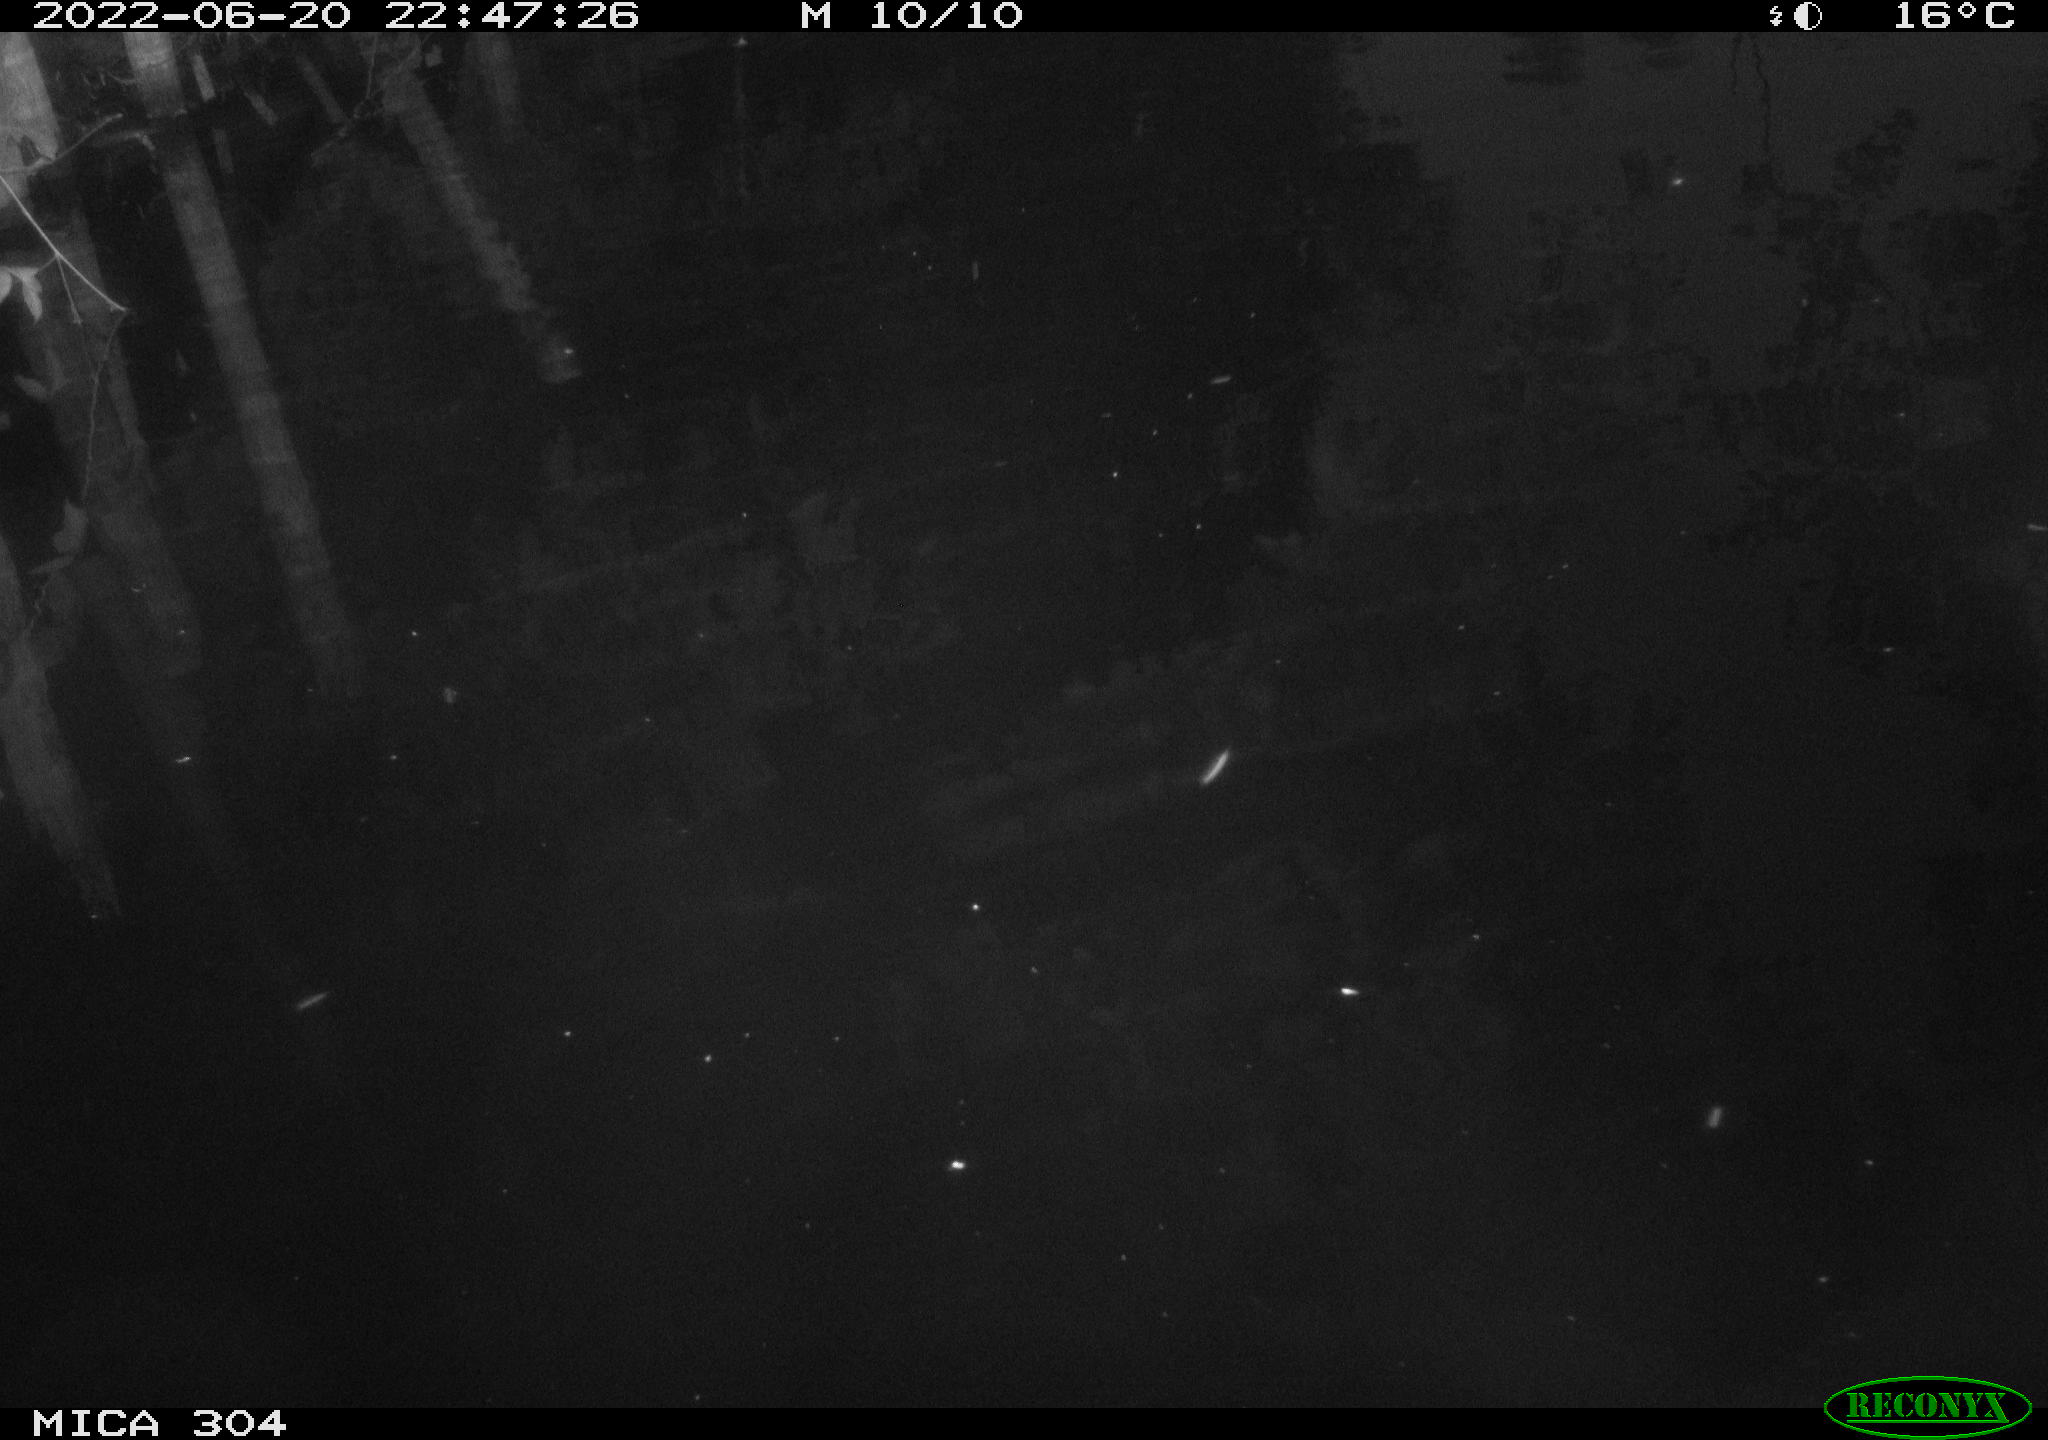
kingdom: Animalia
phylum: Chordata
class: Aves
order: Anseriformes
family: Anatidae
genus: Anas
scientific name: Anas platyrhynchos
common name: Mallard
